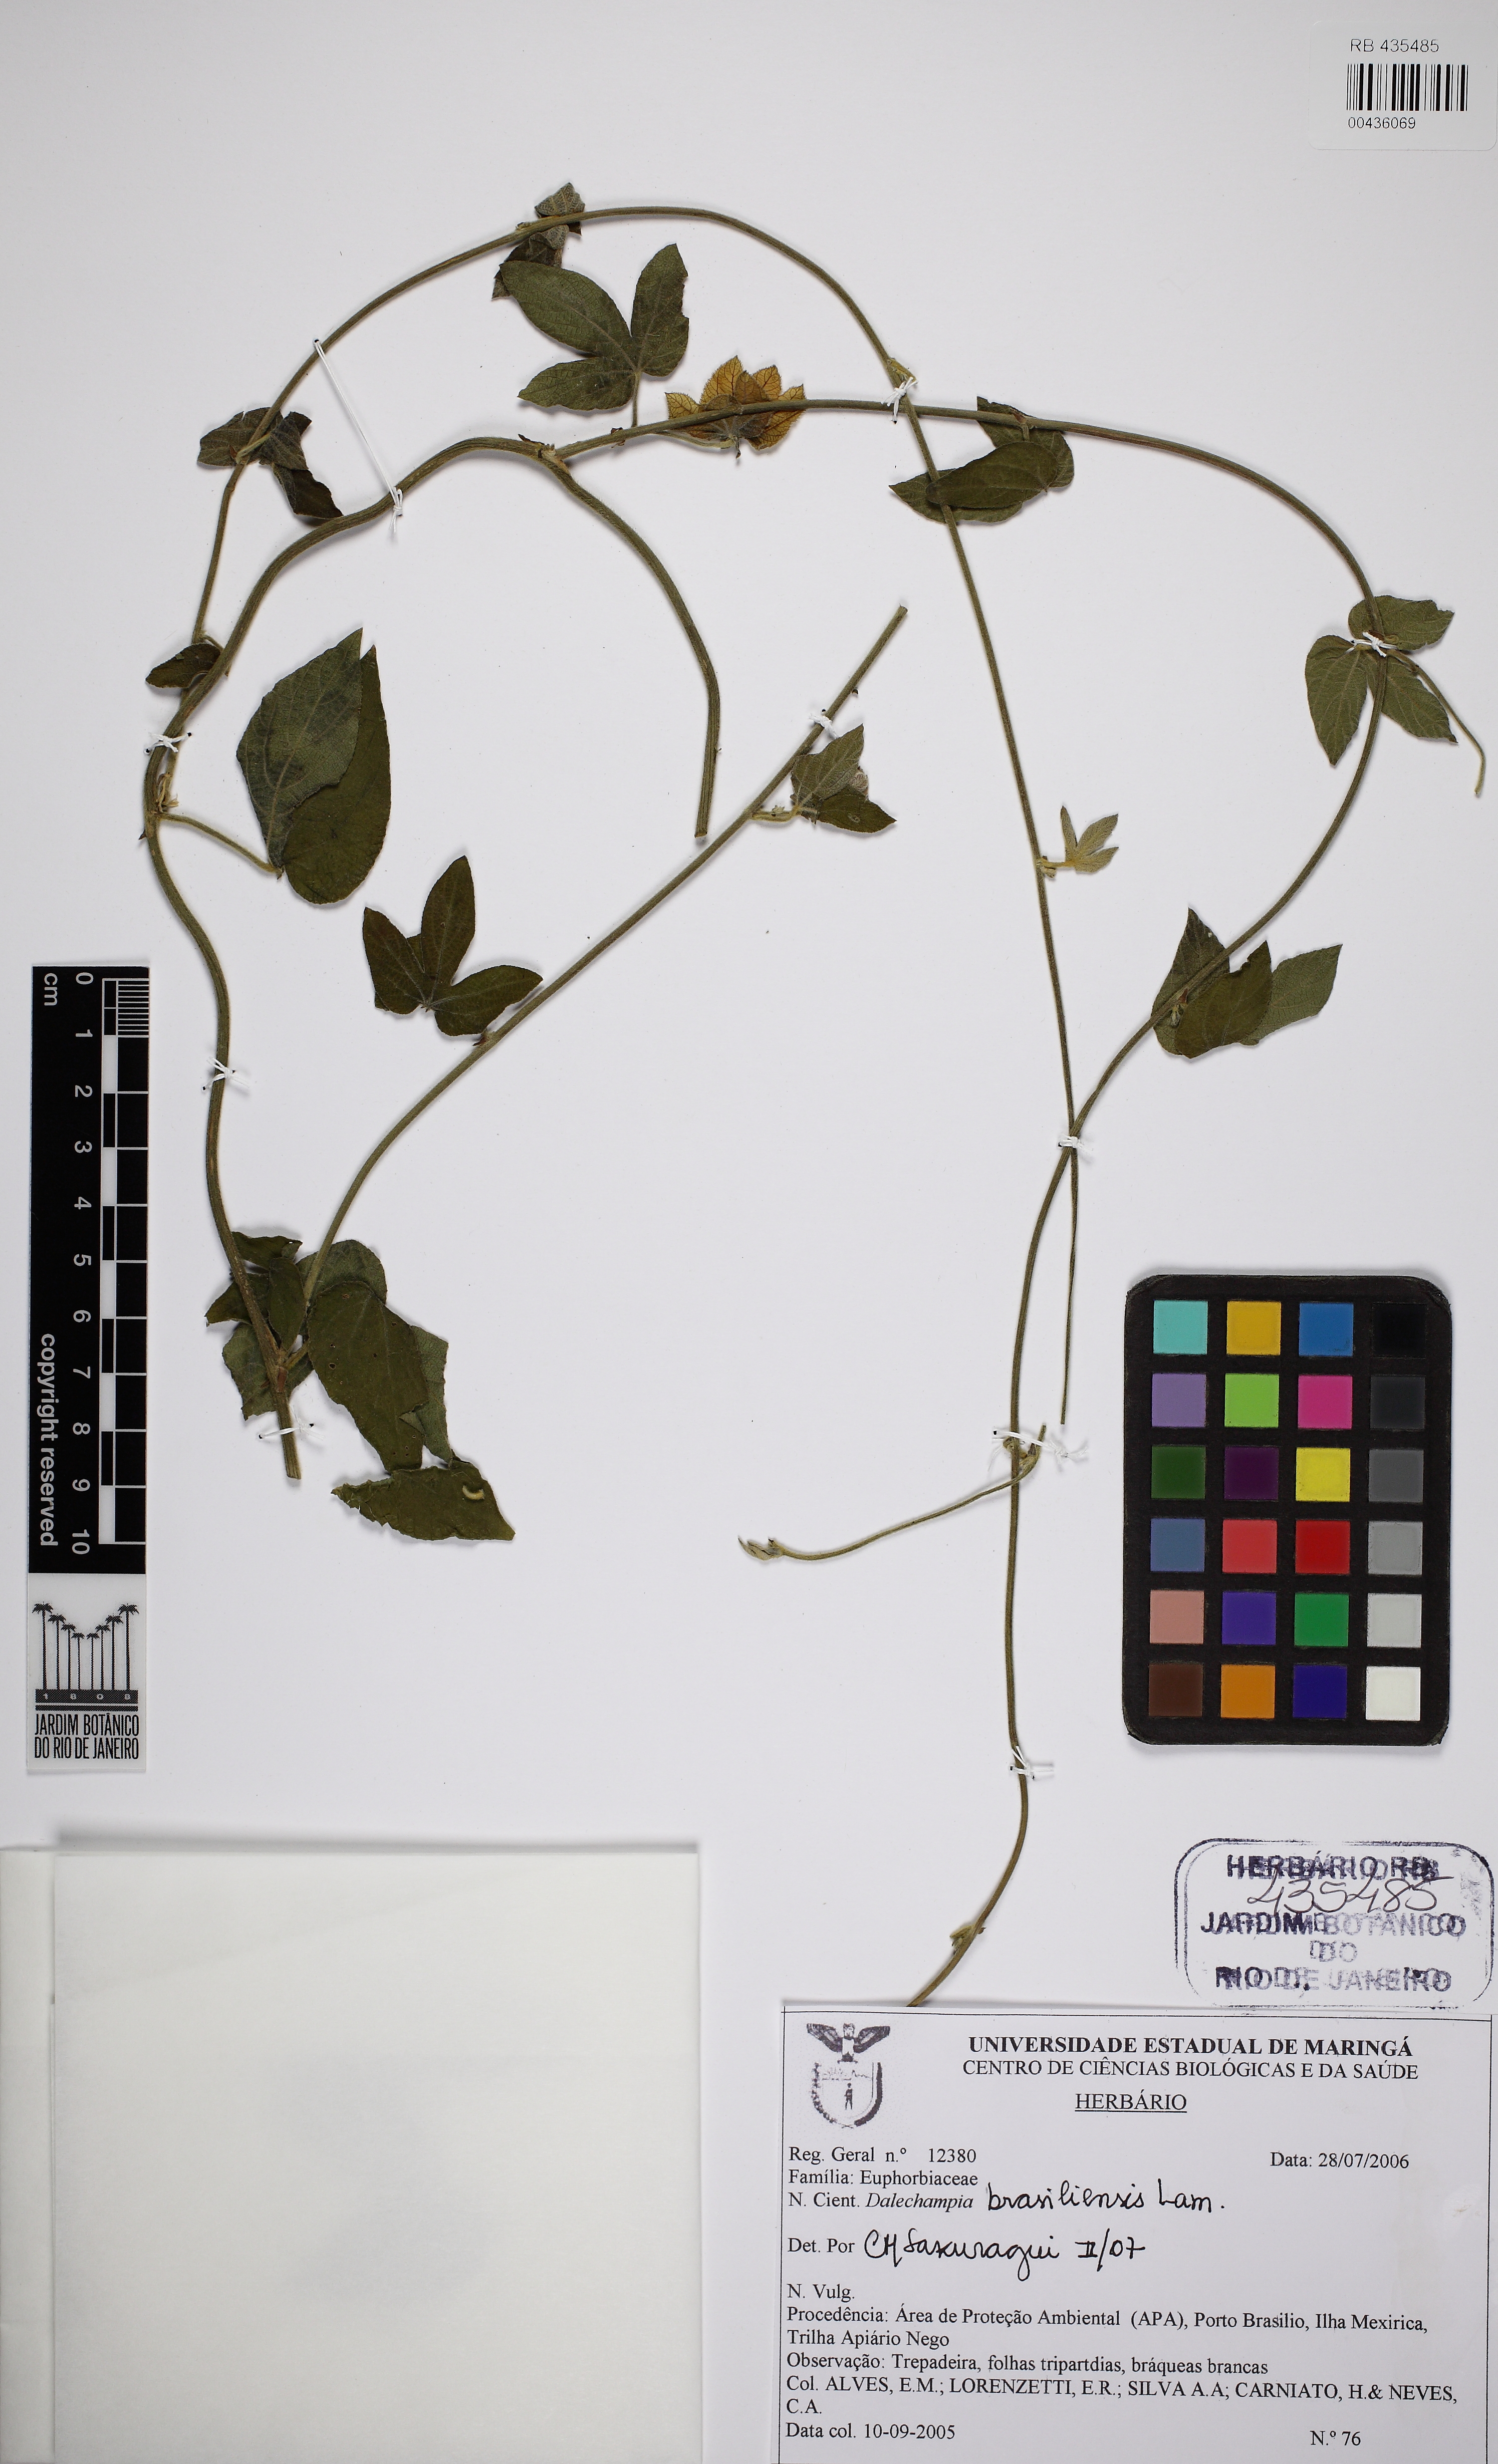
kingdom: Plantae
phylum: Tracheophyta
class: Magnoliopsida
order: Malpighiales
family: Euphorbiaceae
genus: Dalechampia
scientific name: Dalechampia brasiliensis
